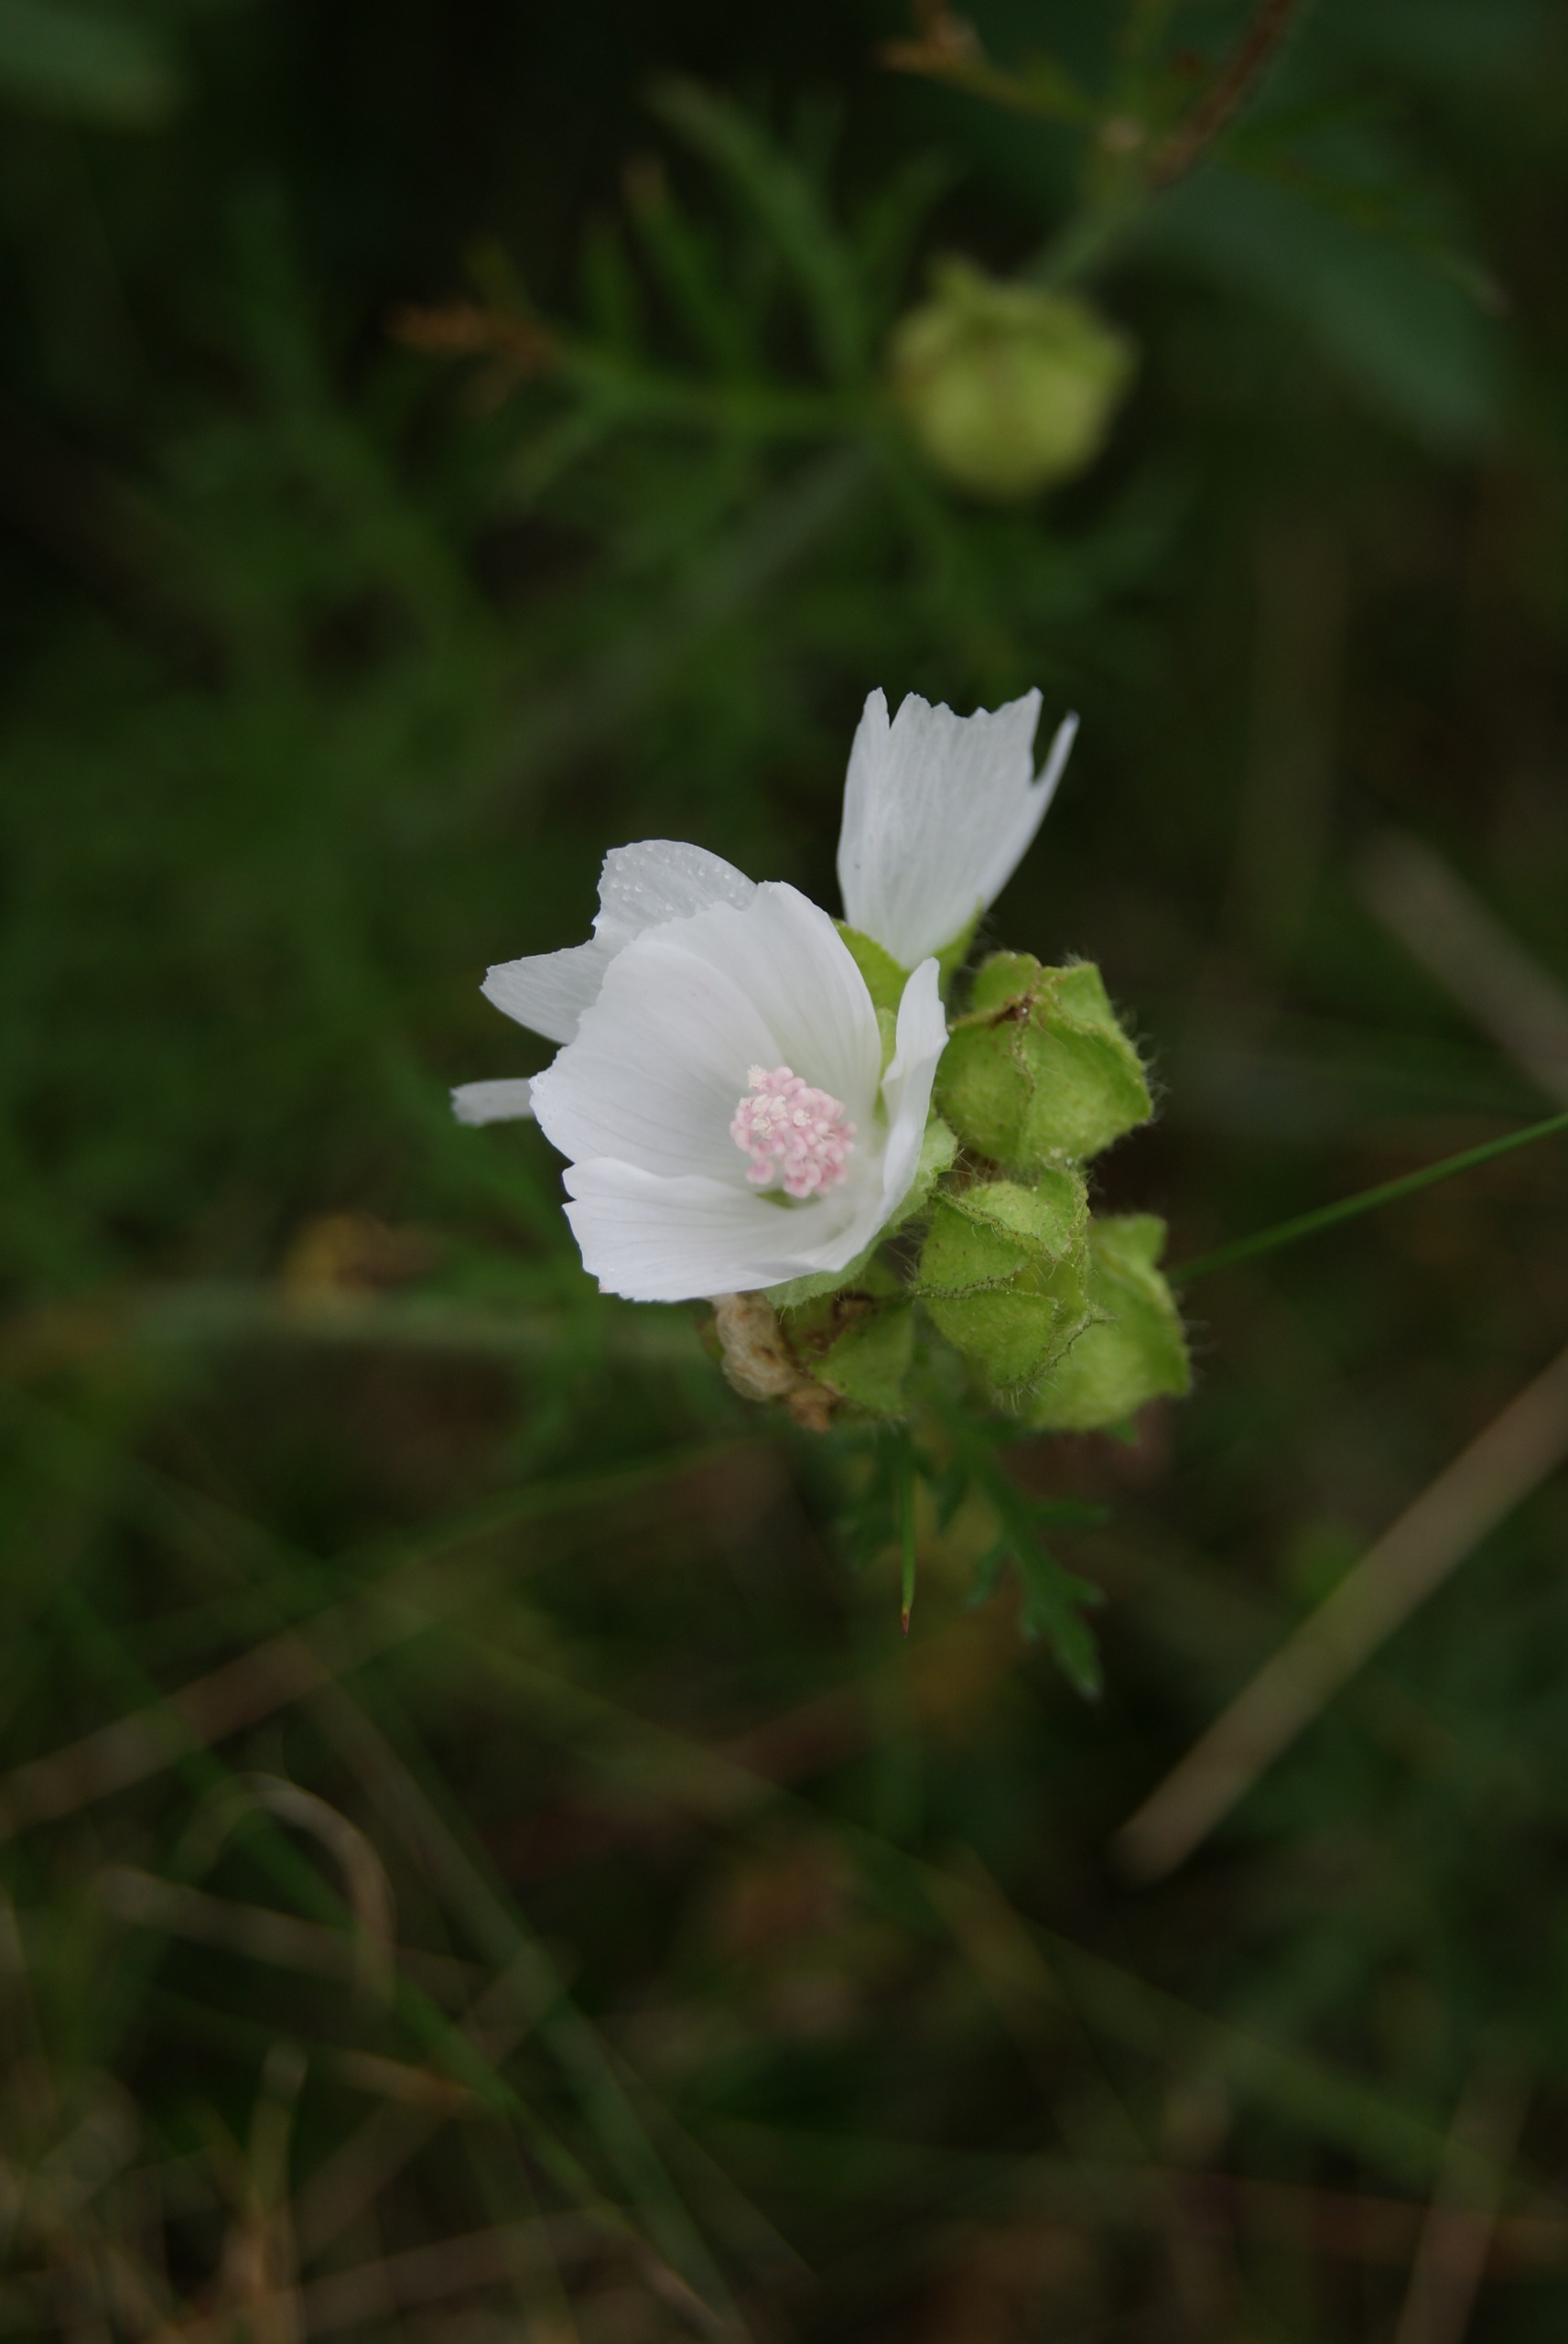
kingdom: Plantae
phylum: Tracheophyta
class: Magnoliopsida
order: Malvales
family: Malvaceae
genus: Malva
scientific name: Malva moschata
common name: Moskus-katost
